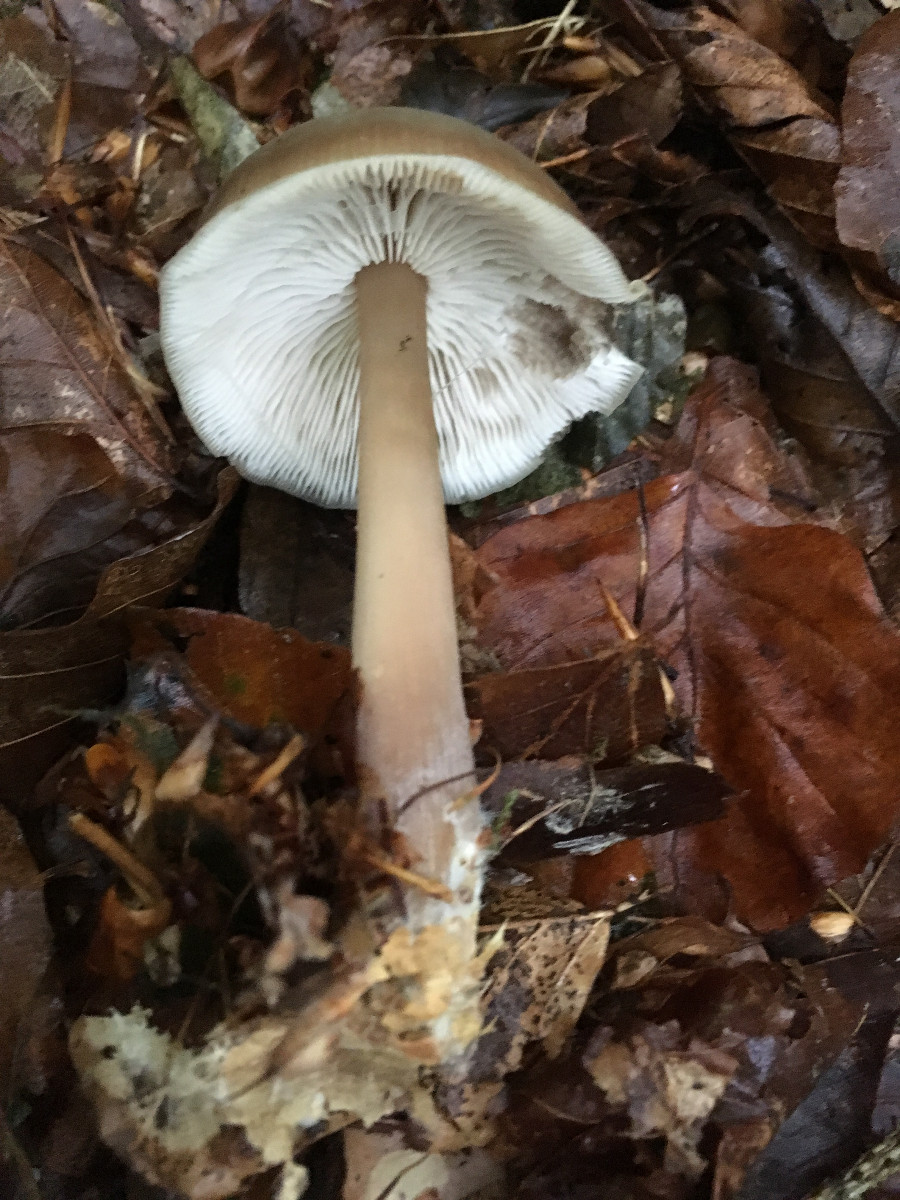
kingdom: Fungi
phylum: Basidiomycota
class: Agaricomycetes
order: Agaricales
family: Omphalotaceae
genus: Rhodocollybia
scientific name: Rhodocollybia asema
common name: horngrå fladhat
